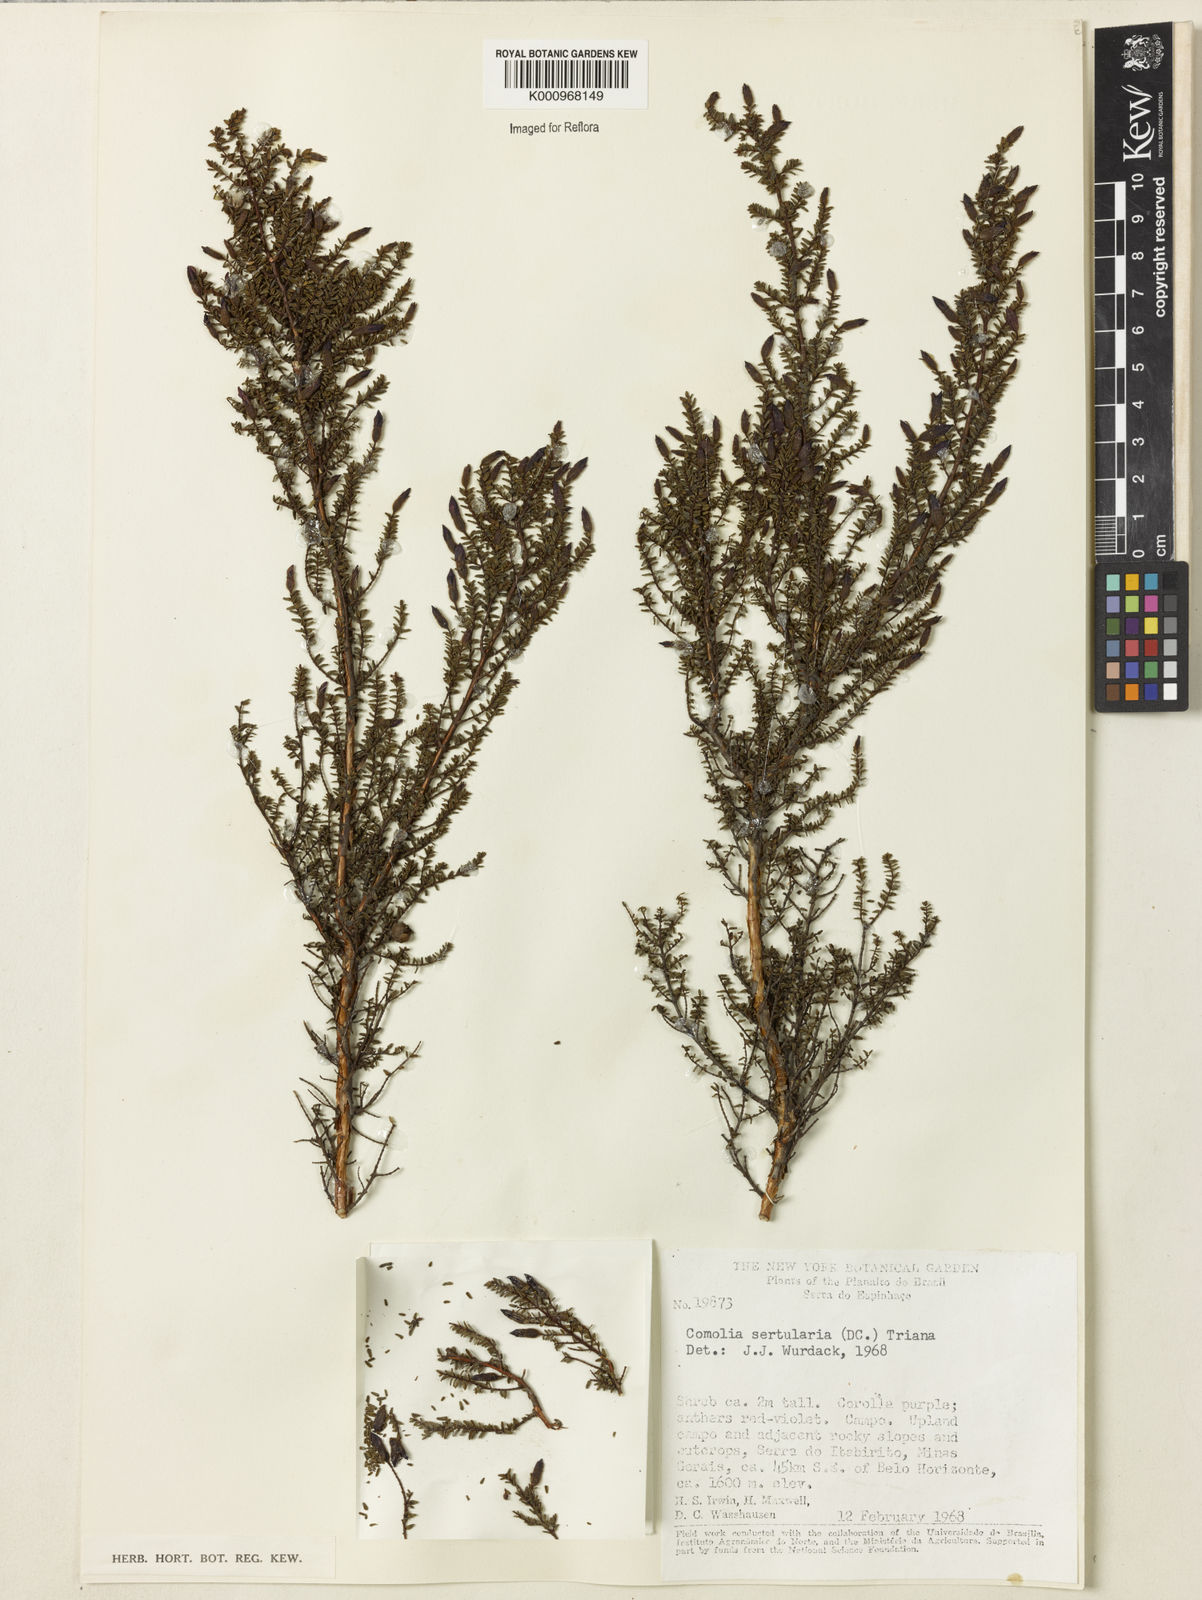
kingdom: Plantae
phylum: Tracheophyta
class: Magnoliopsida
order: Myrtales
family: Melastomataceae
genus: Fritzschia
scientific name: Fritzschia sertularia
